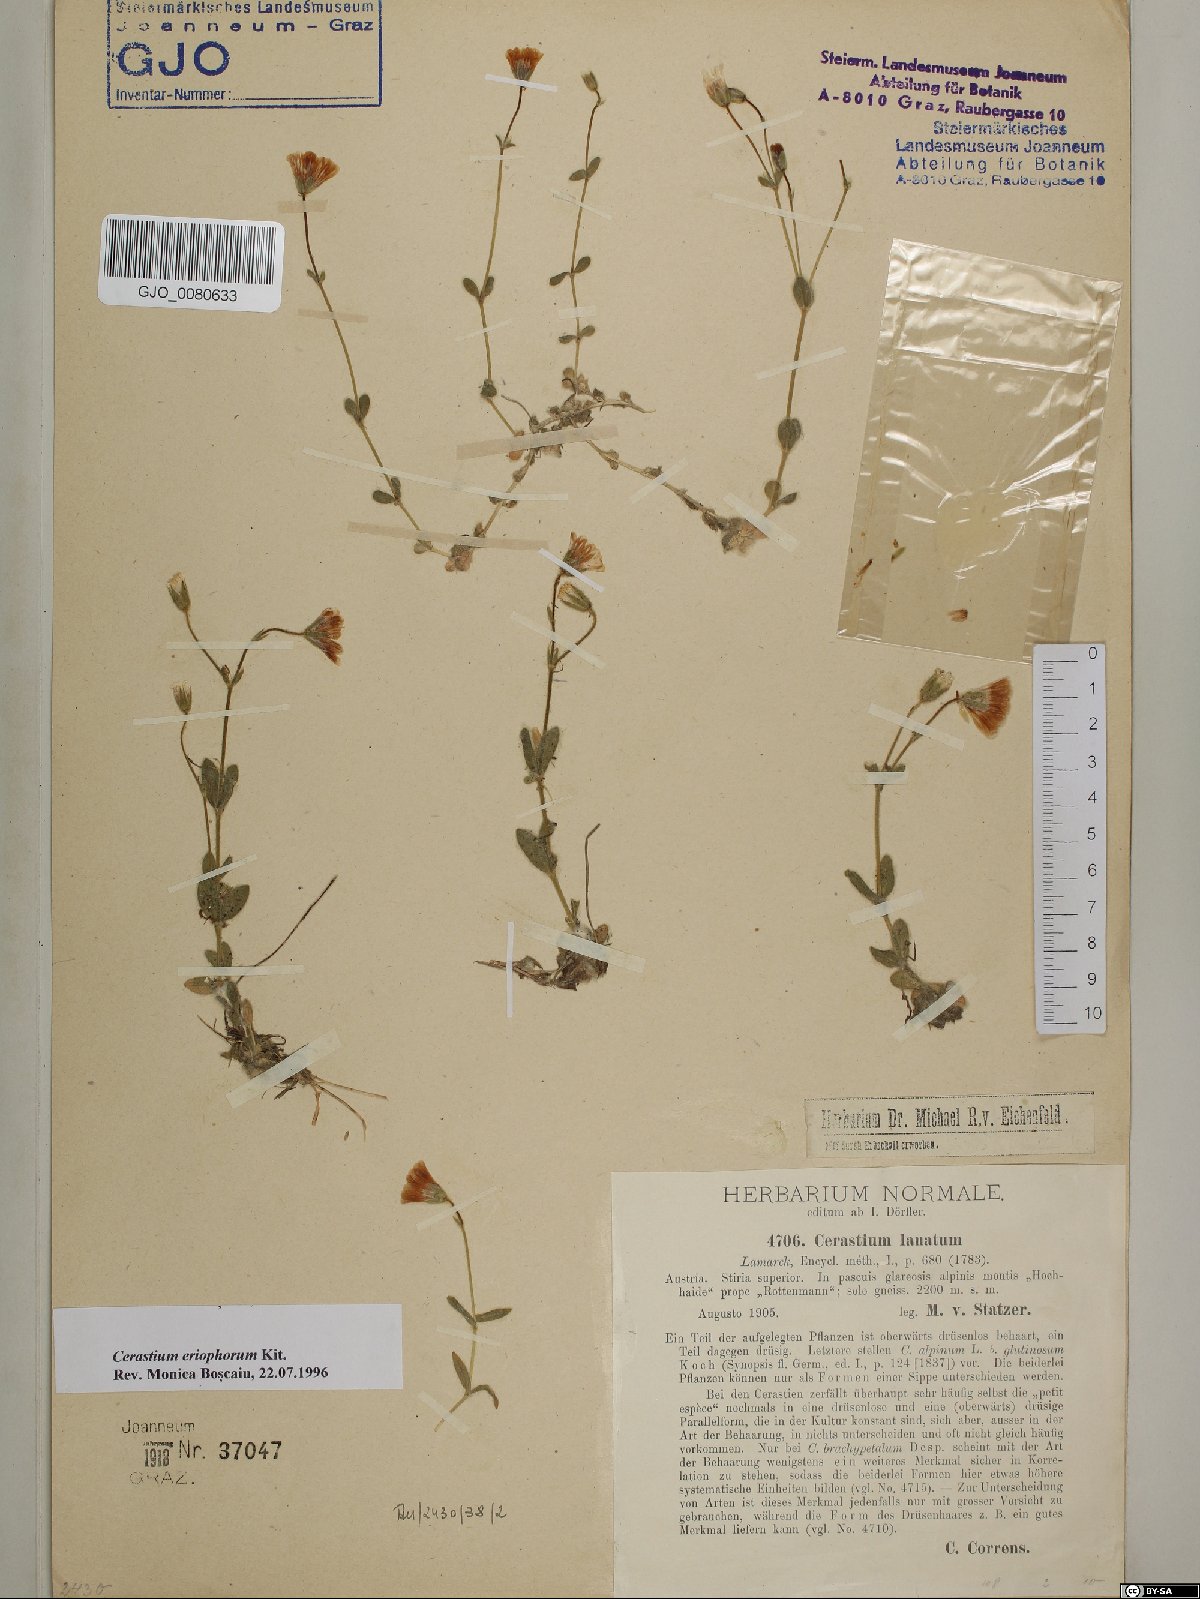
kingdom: Plantae
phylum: Tracheophyta
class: Magnoliopsida
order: Caryophyllales
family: Caryophyllaceae
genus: Cerastium
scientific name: Cerastium eriophorum
